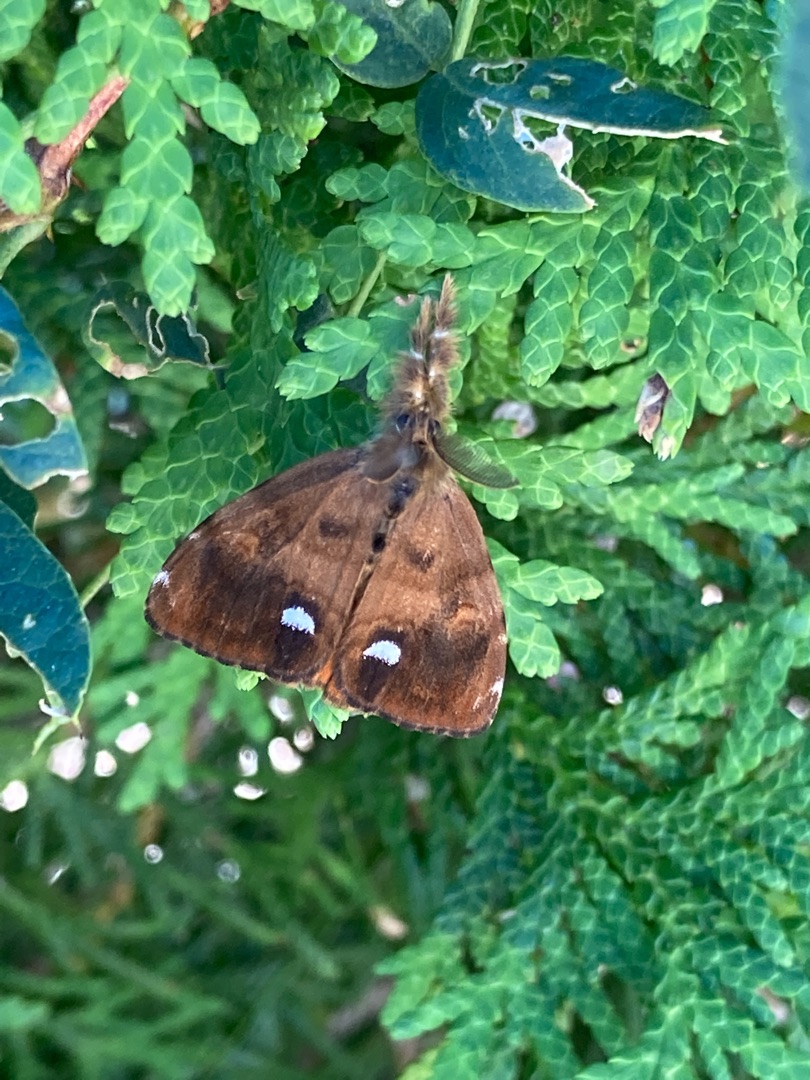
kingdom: Animalia
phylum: Arthropoda
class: Insecta
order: Lepidoptera
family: Erebidae
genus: Orgyia
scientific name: Orgyia antiqua
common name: Lille penselspinder
